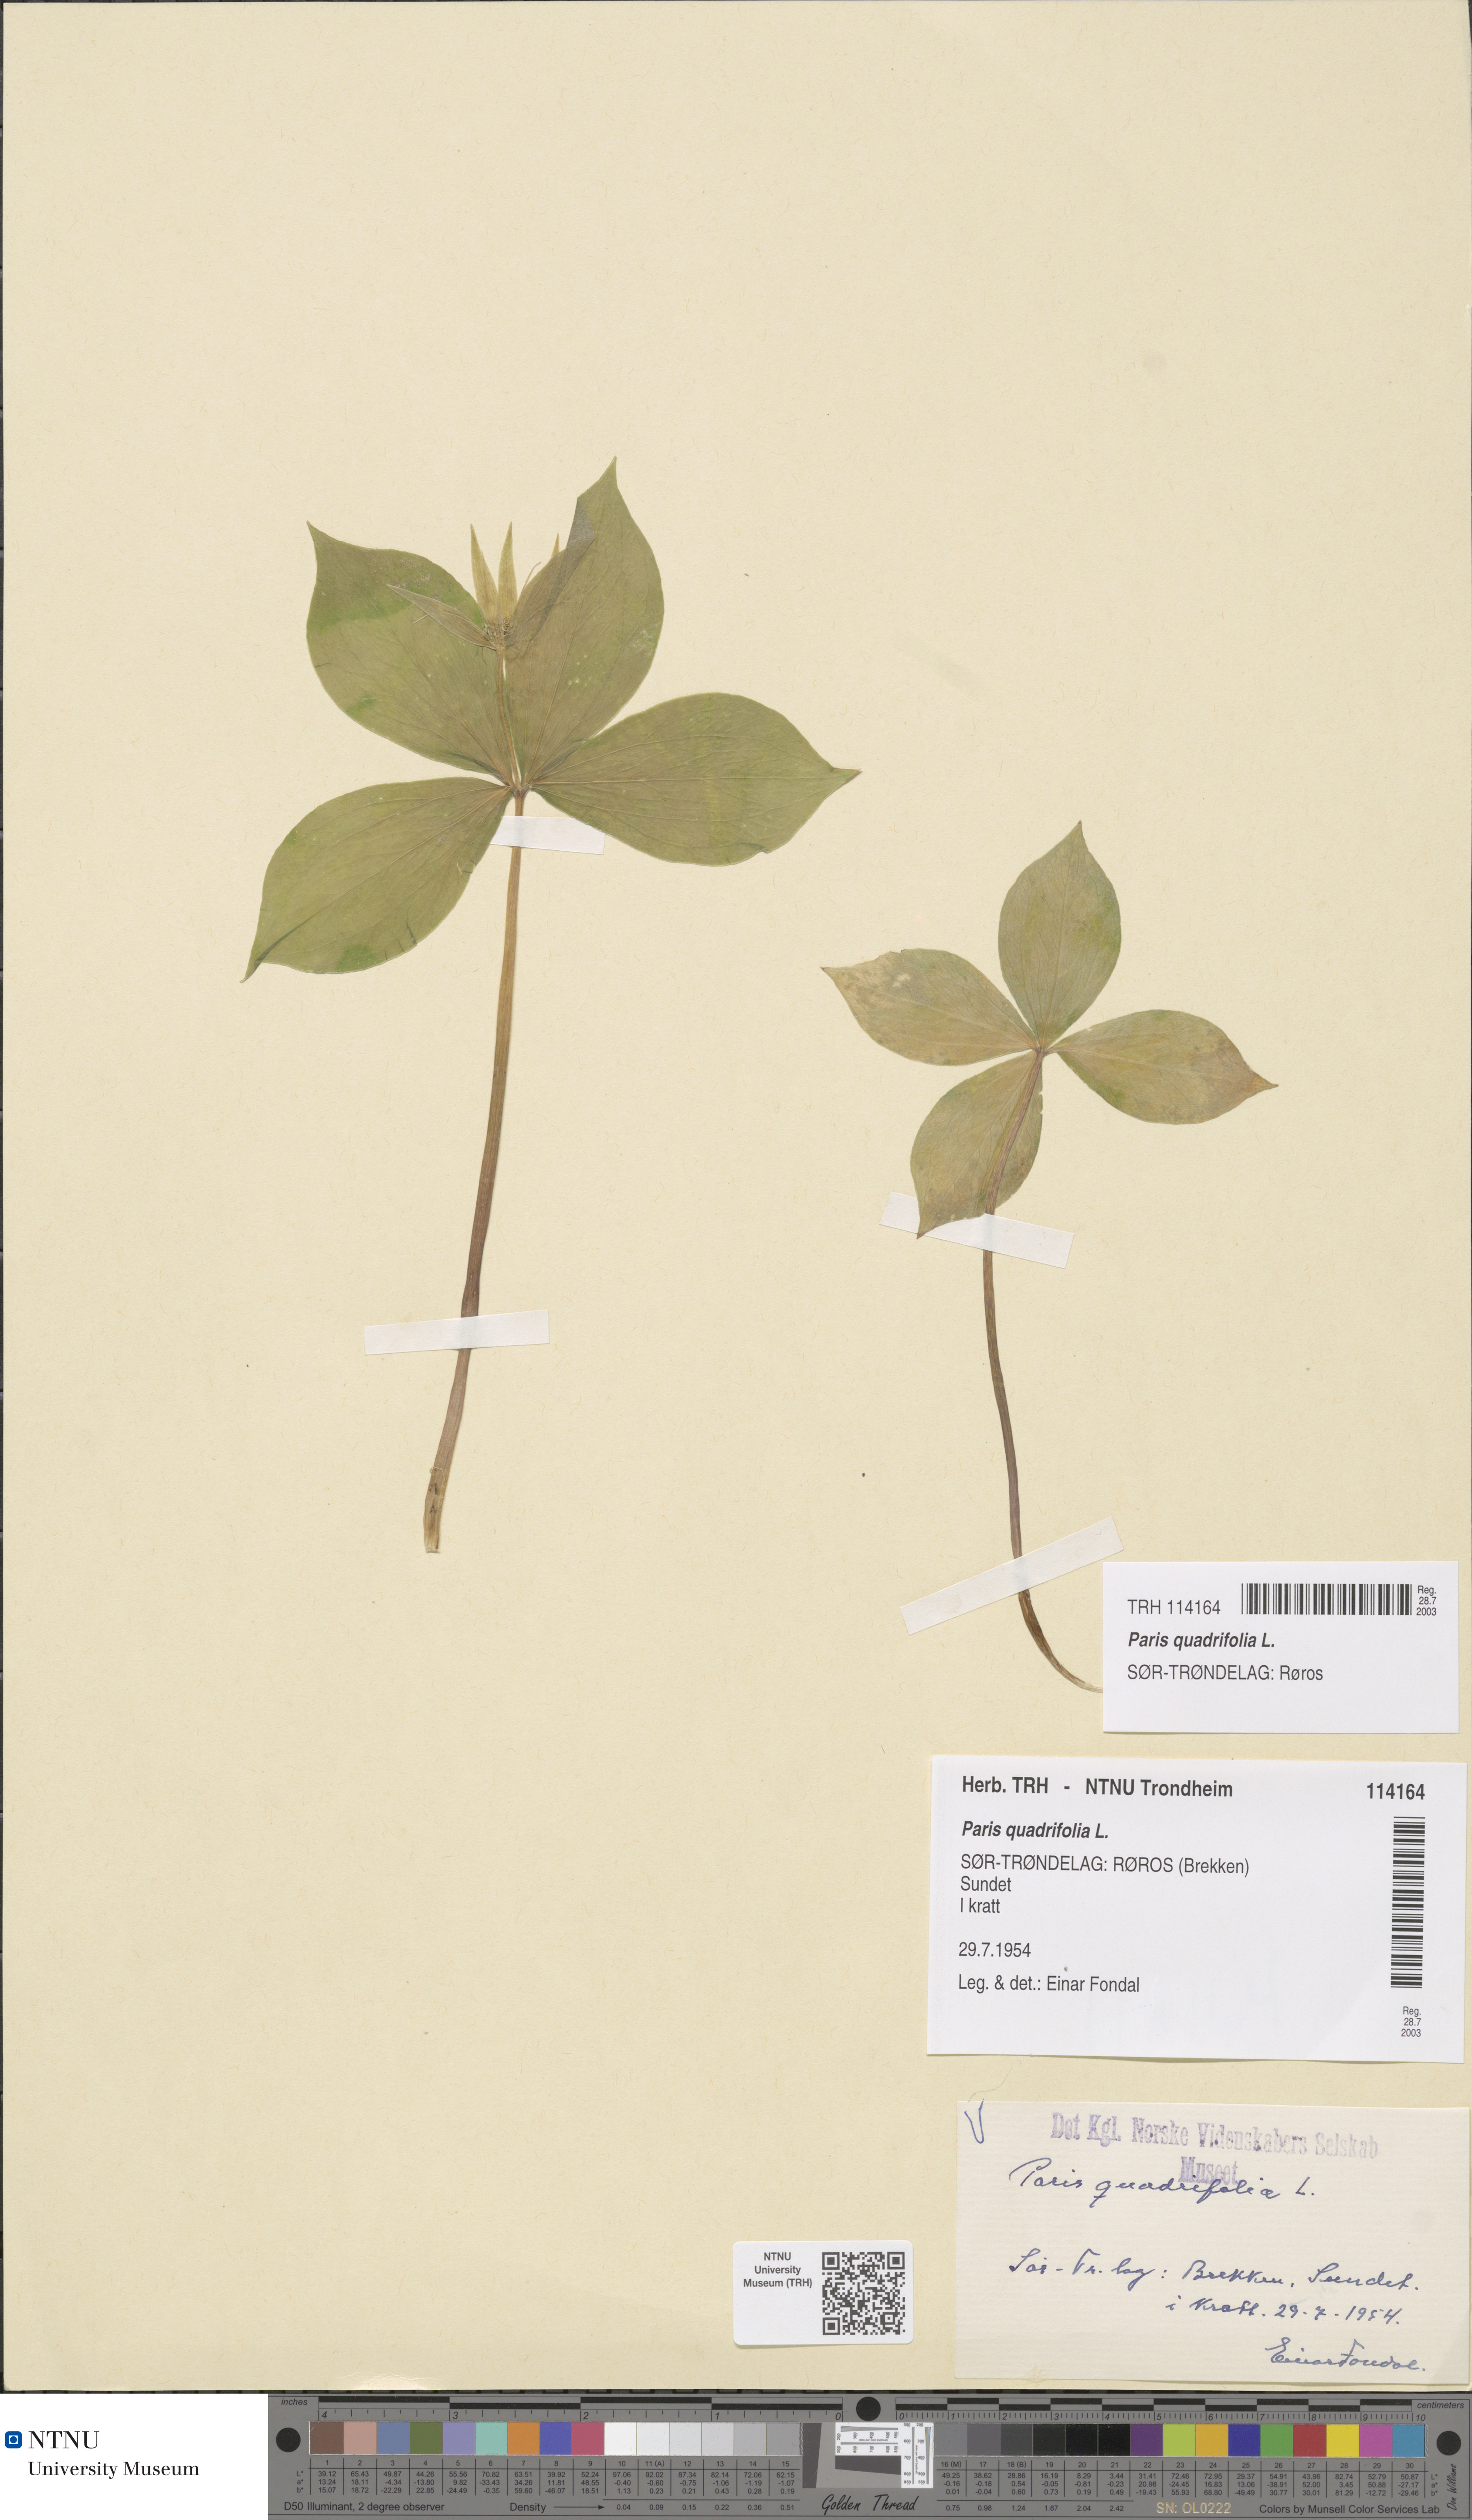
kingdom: Plantae
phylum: Tracheophyta
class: Liliopsida
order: Liliales
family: Melanthiaceae
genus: Paris
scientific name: Paris quadrifolia
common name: Herb-paris
